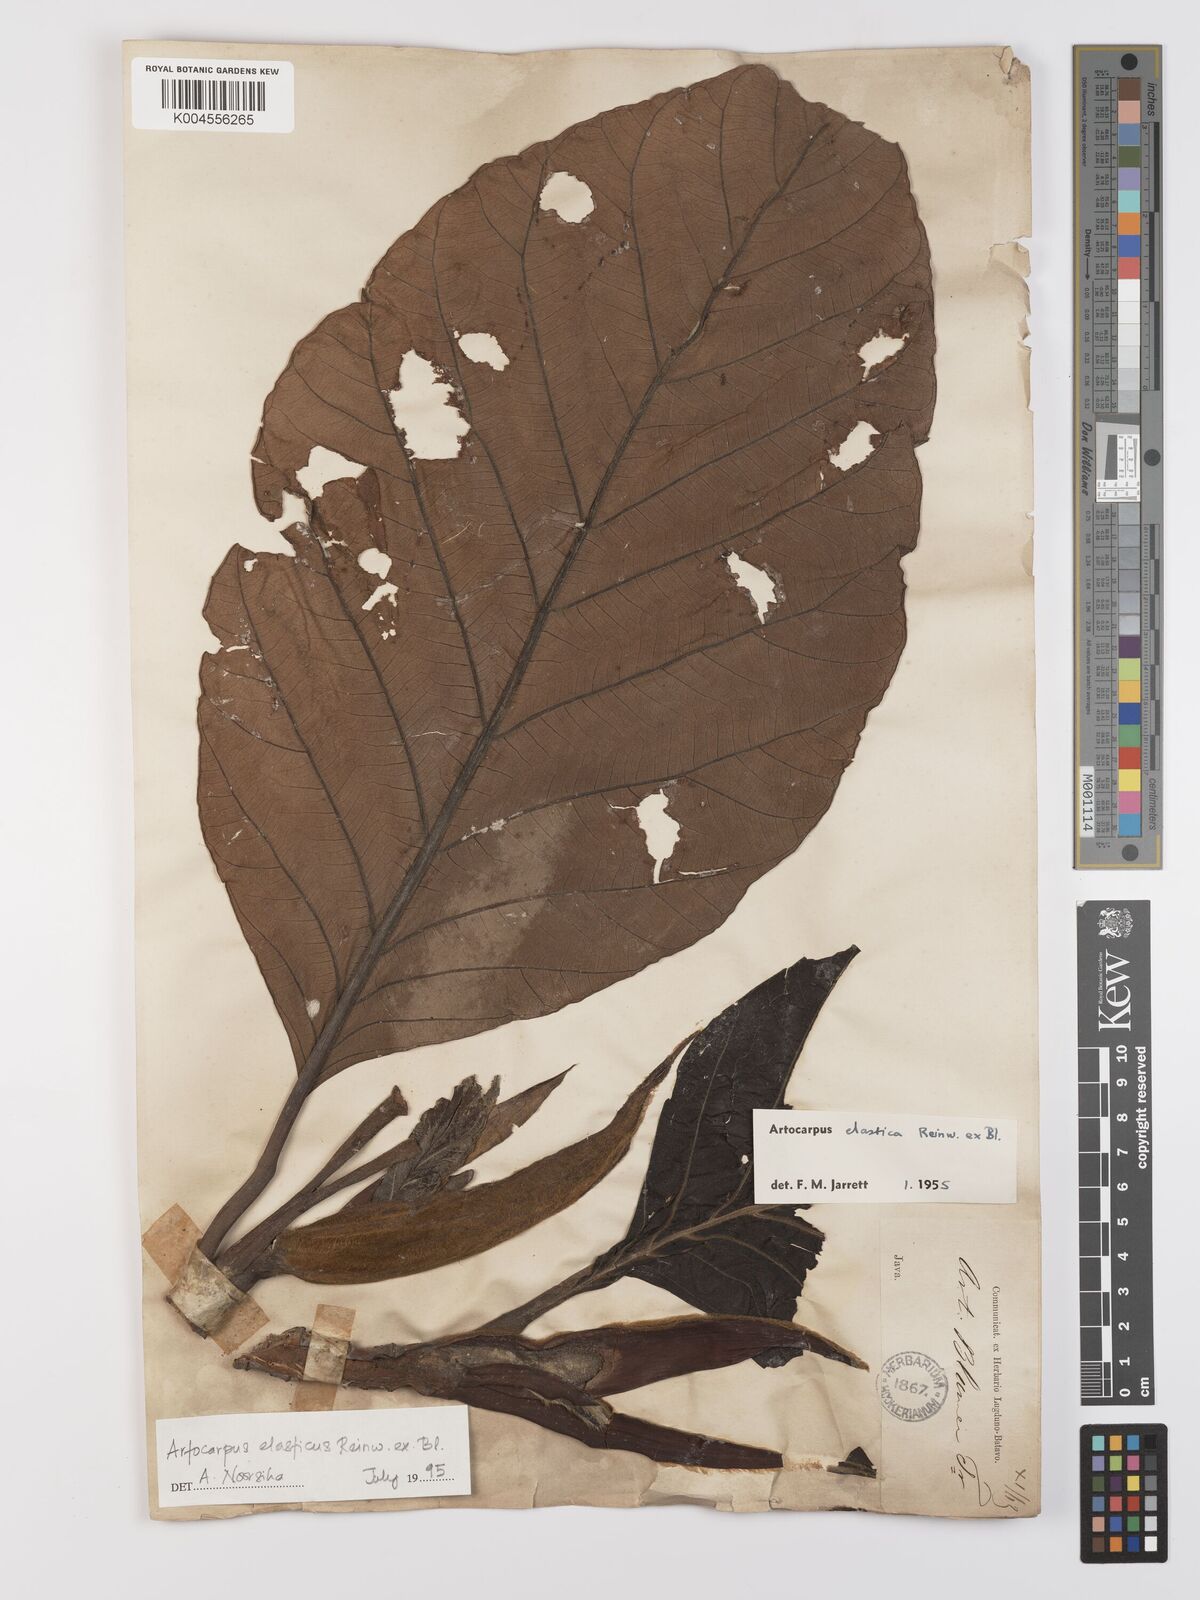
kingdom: Plantae
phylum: Tracheophyta
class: Magnoliopsida
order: Rosales
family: Moraceae
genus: Artocarpus
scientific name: Artocarpus elasticus
